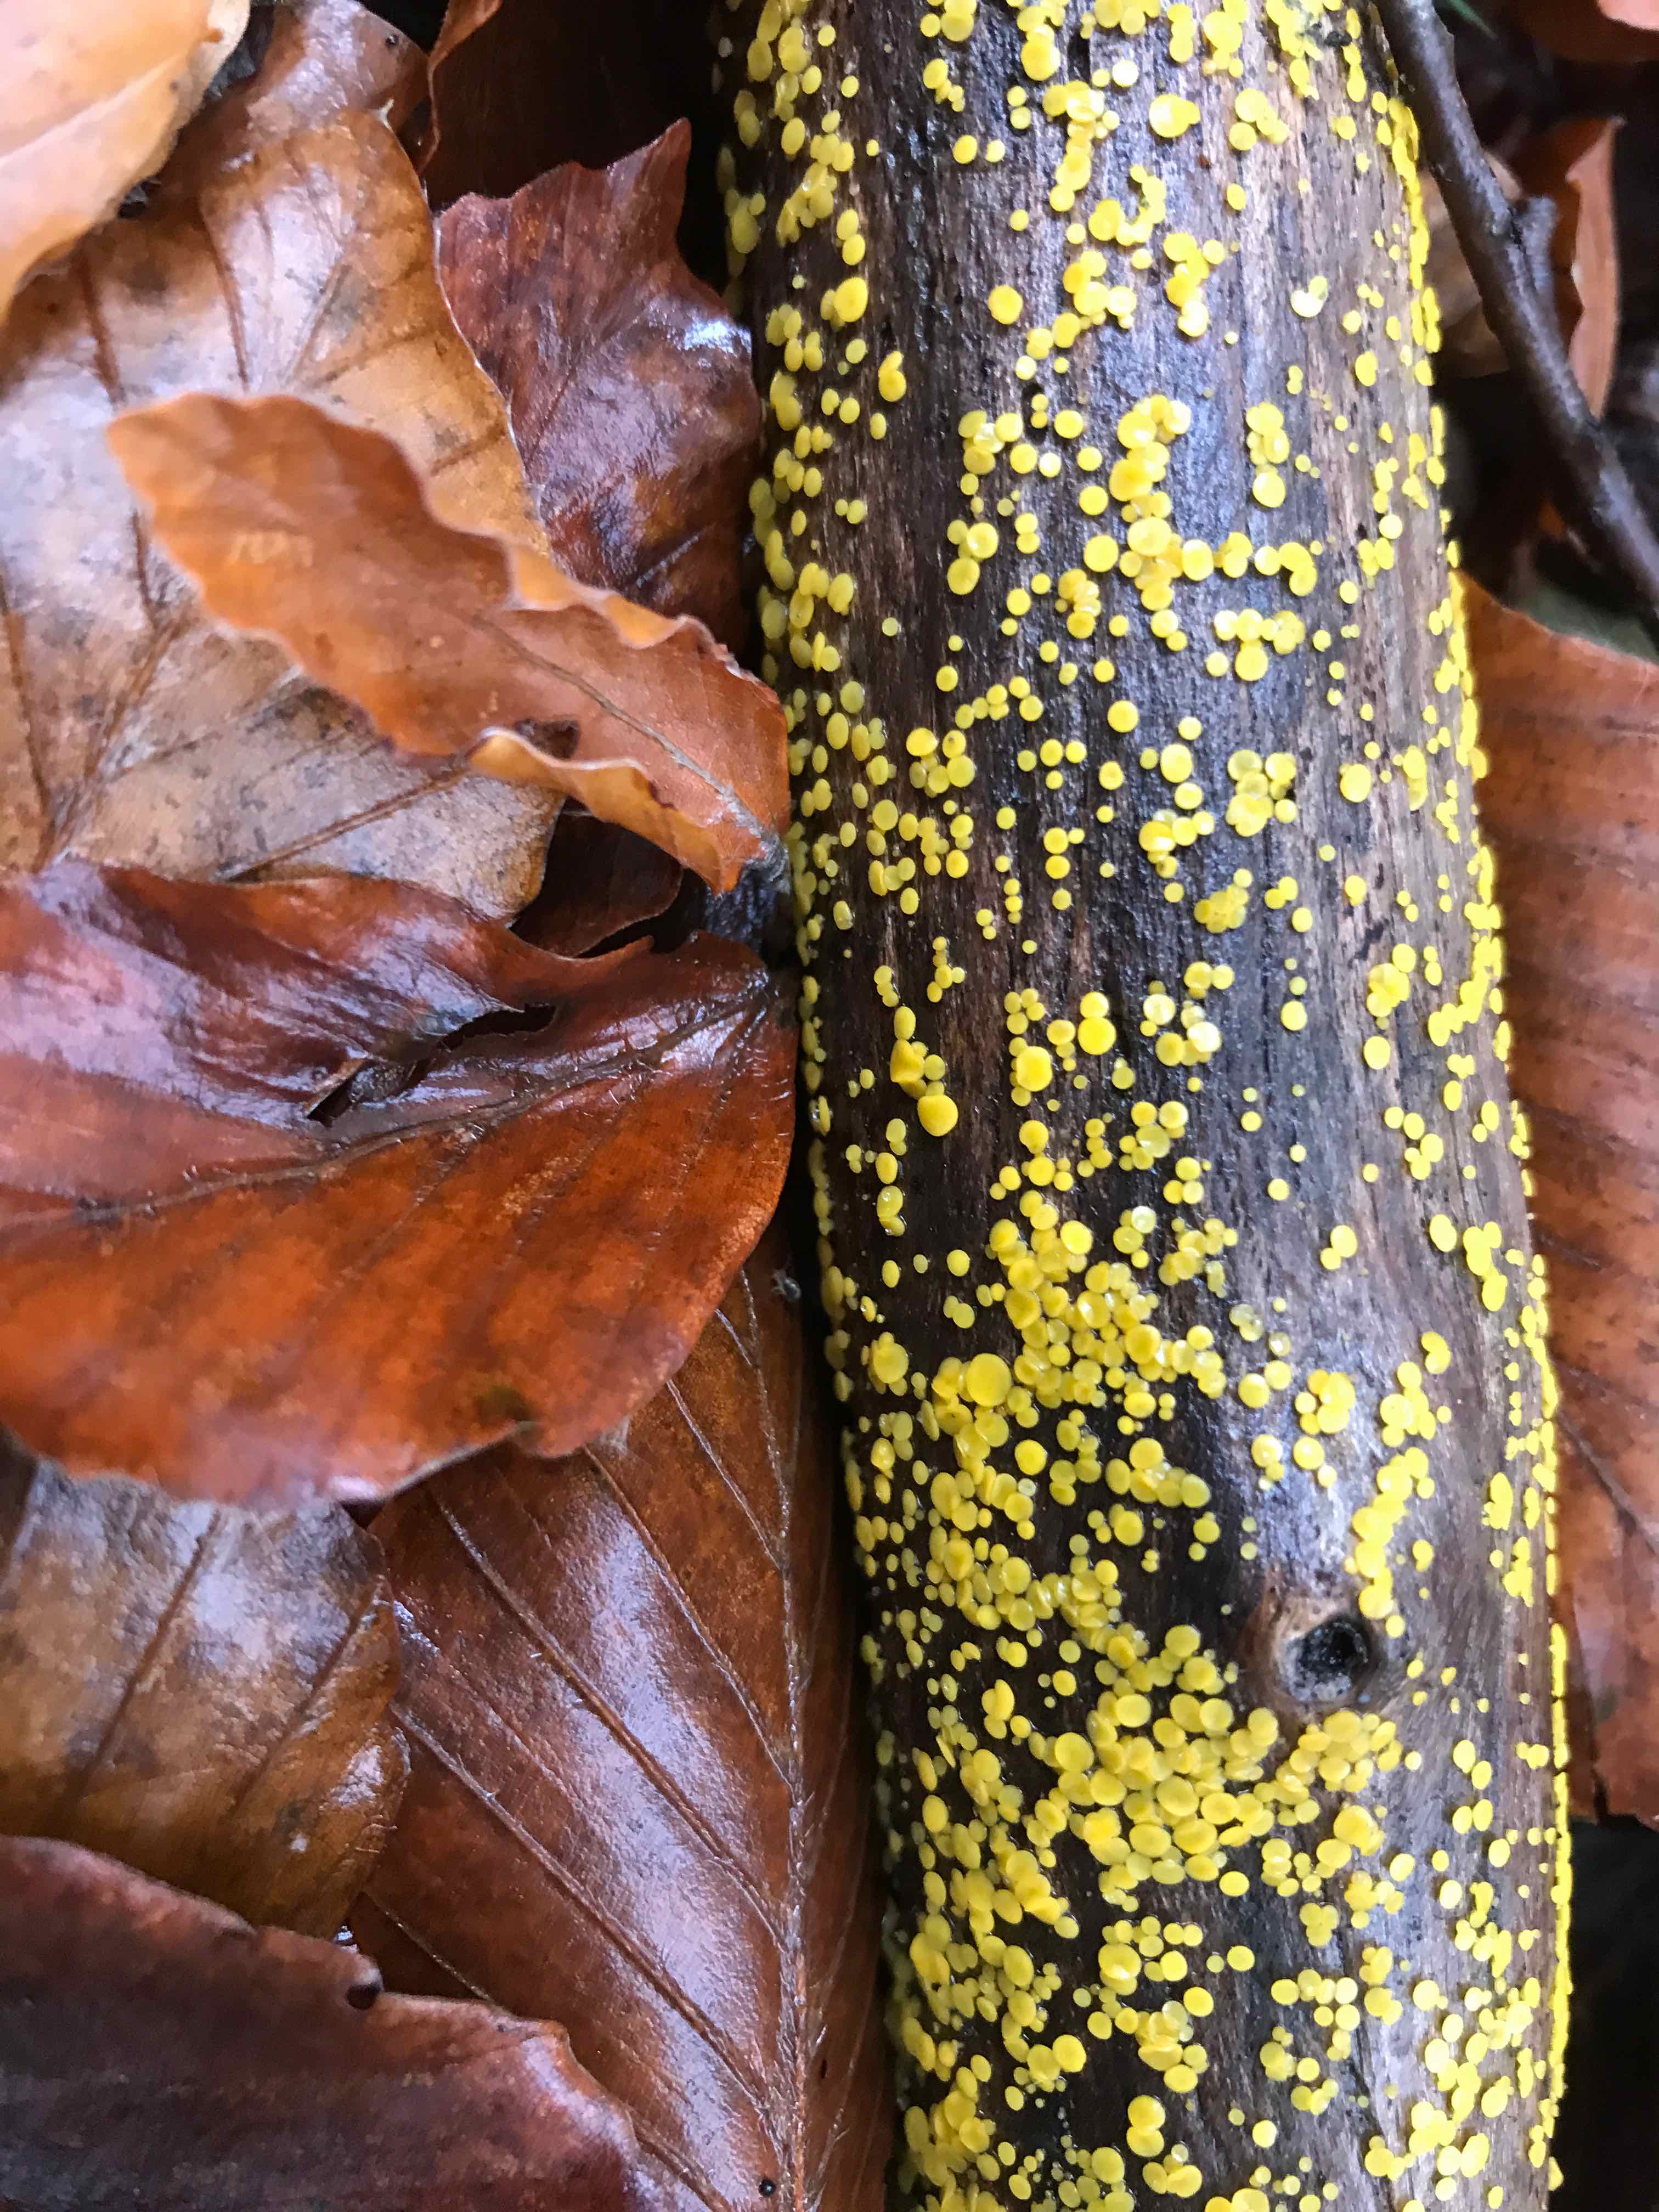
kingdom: Fungi
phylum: Ascomycota
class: Leotiomycetes
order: Helotiales
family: Pezizellaceae
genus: Calycina
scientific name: Calycina citrina
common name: almindelig gulskive
